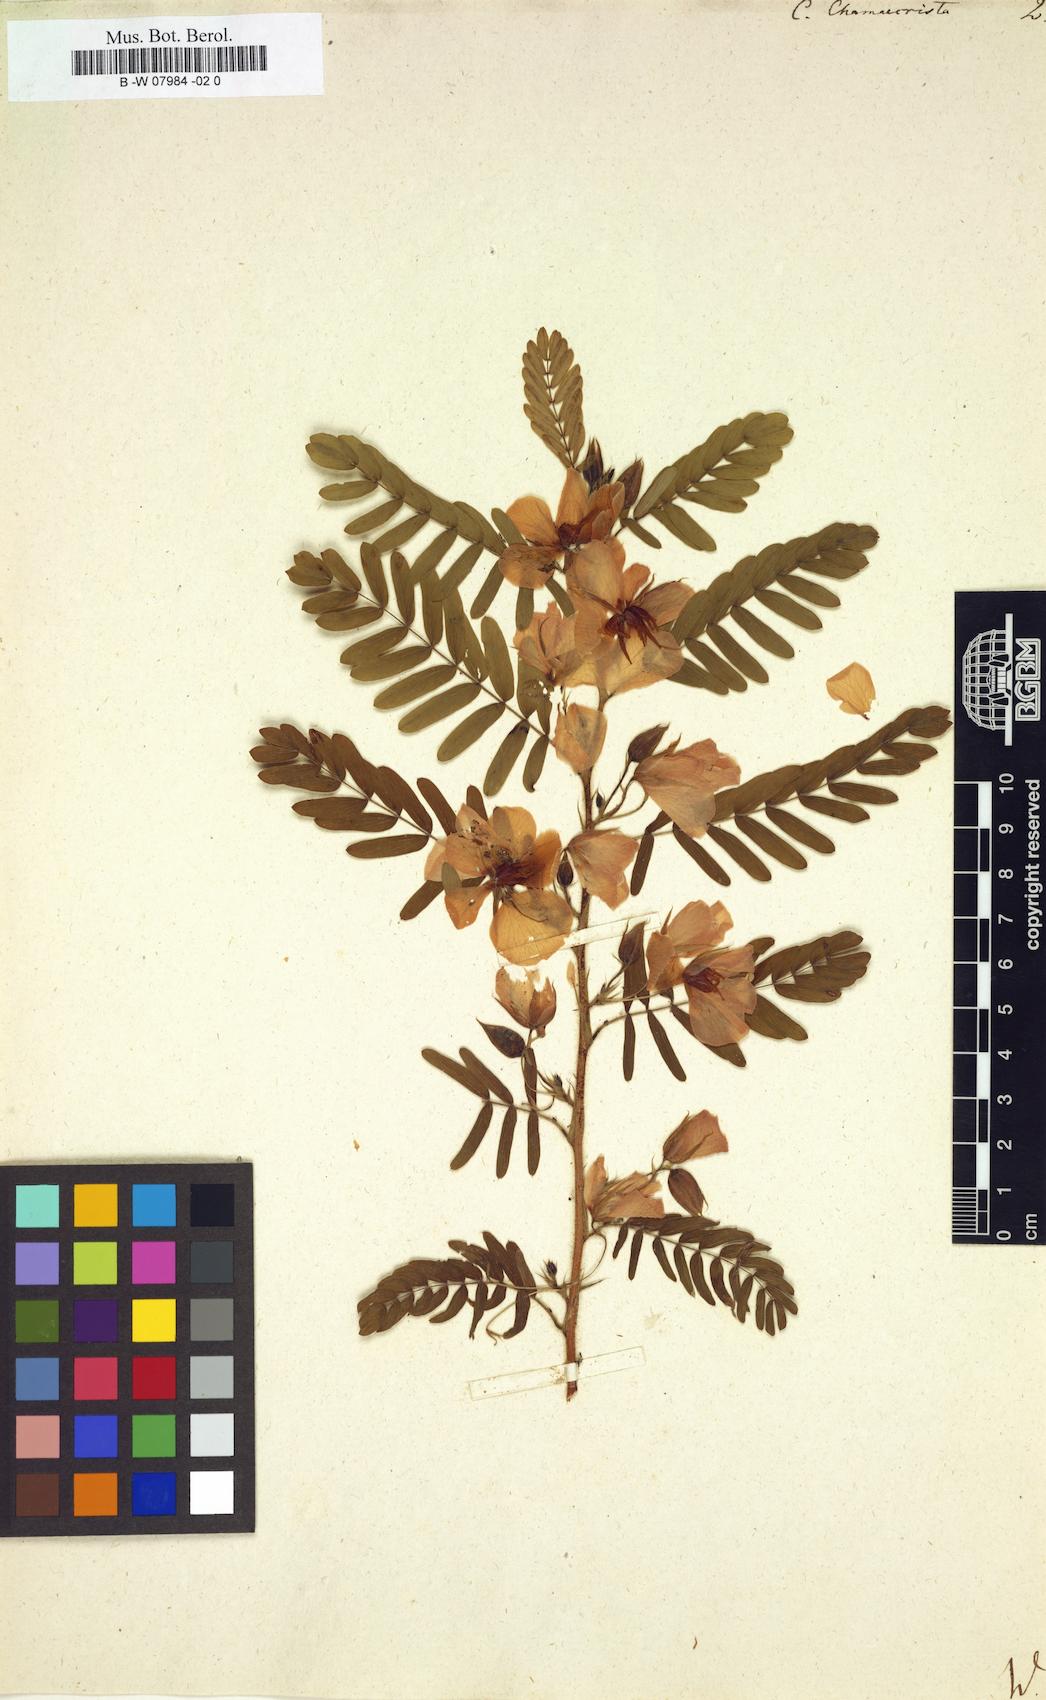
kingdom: Plantae
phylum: Tracheophyta
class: Magnoliopsida
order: Fabales
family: Fabaceae
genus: Chamaecrista
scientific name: Chamaecrista
